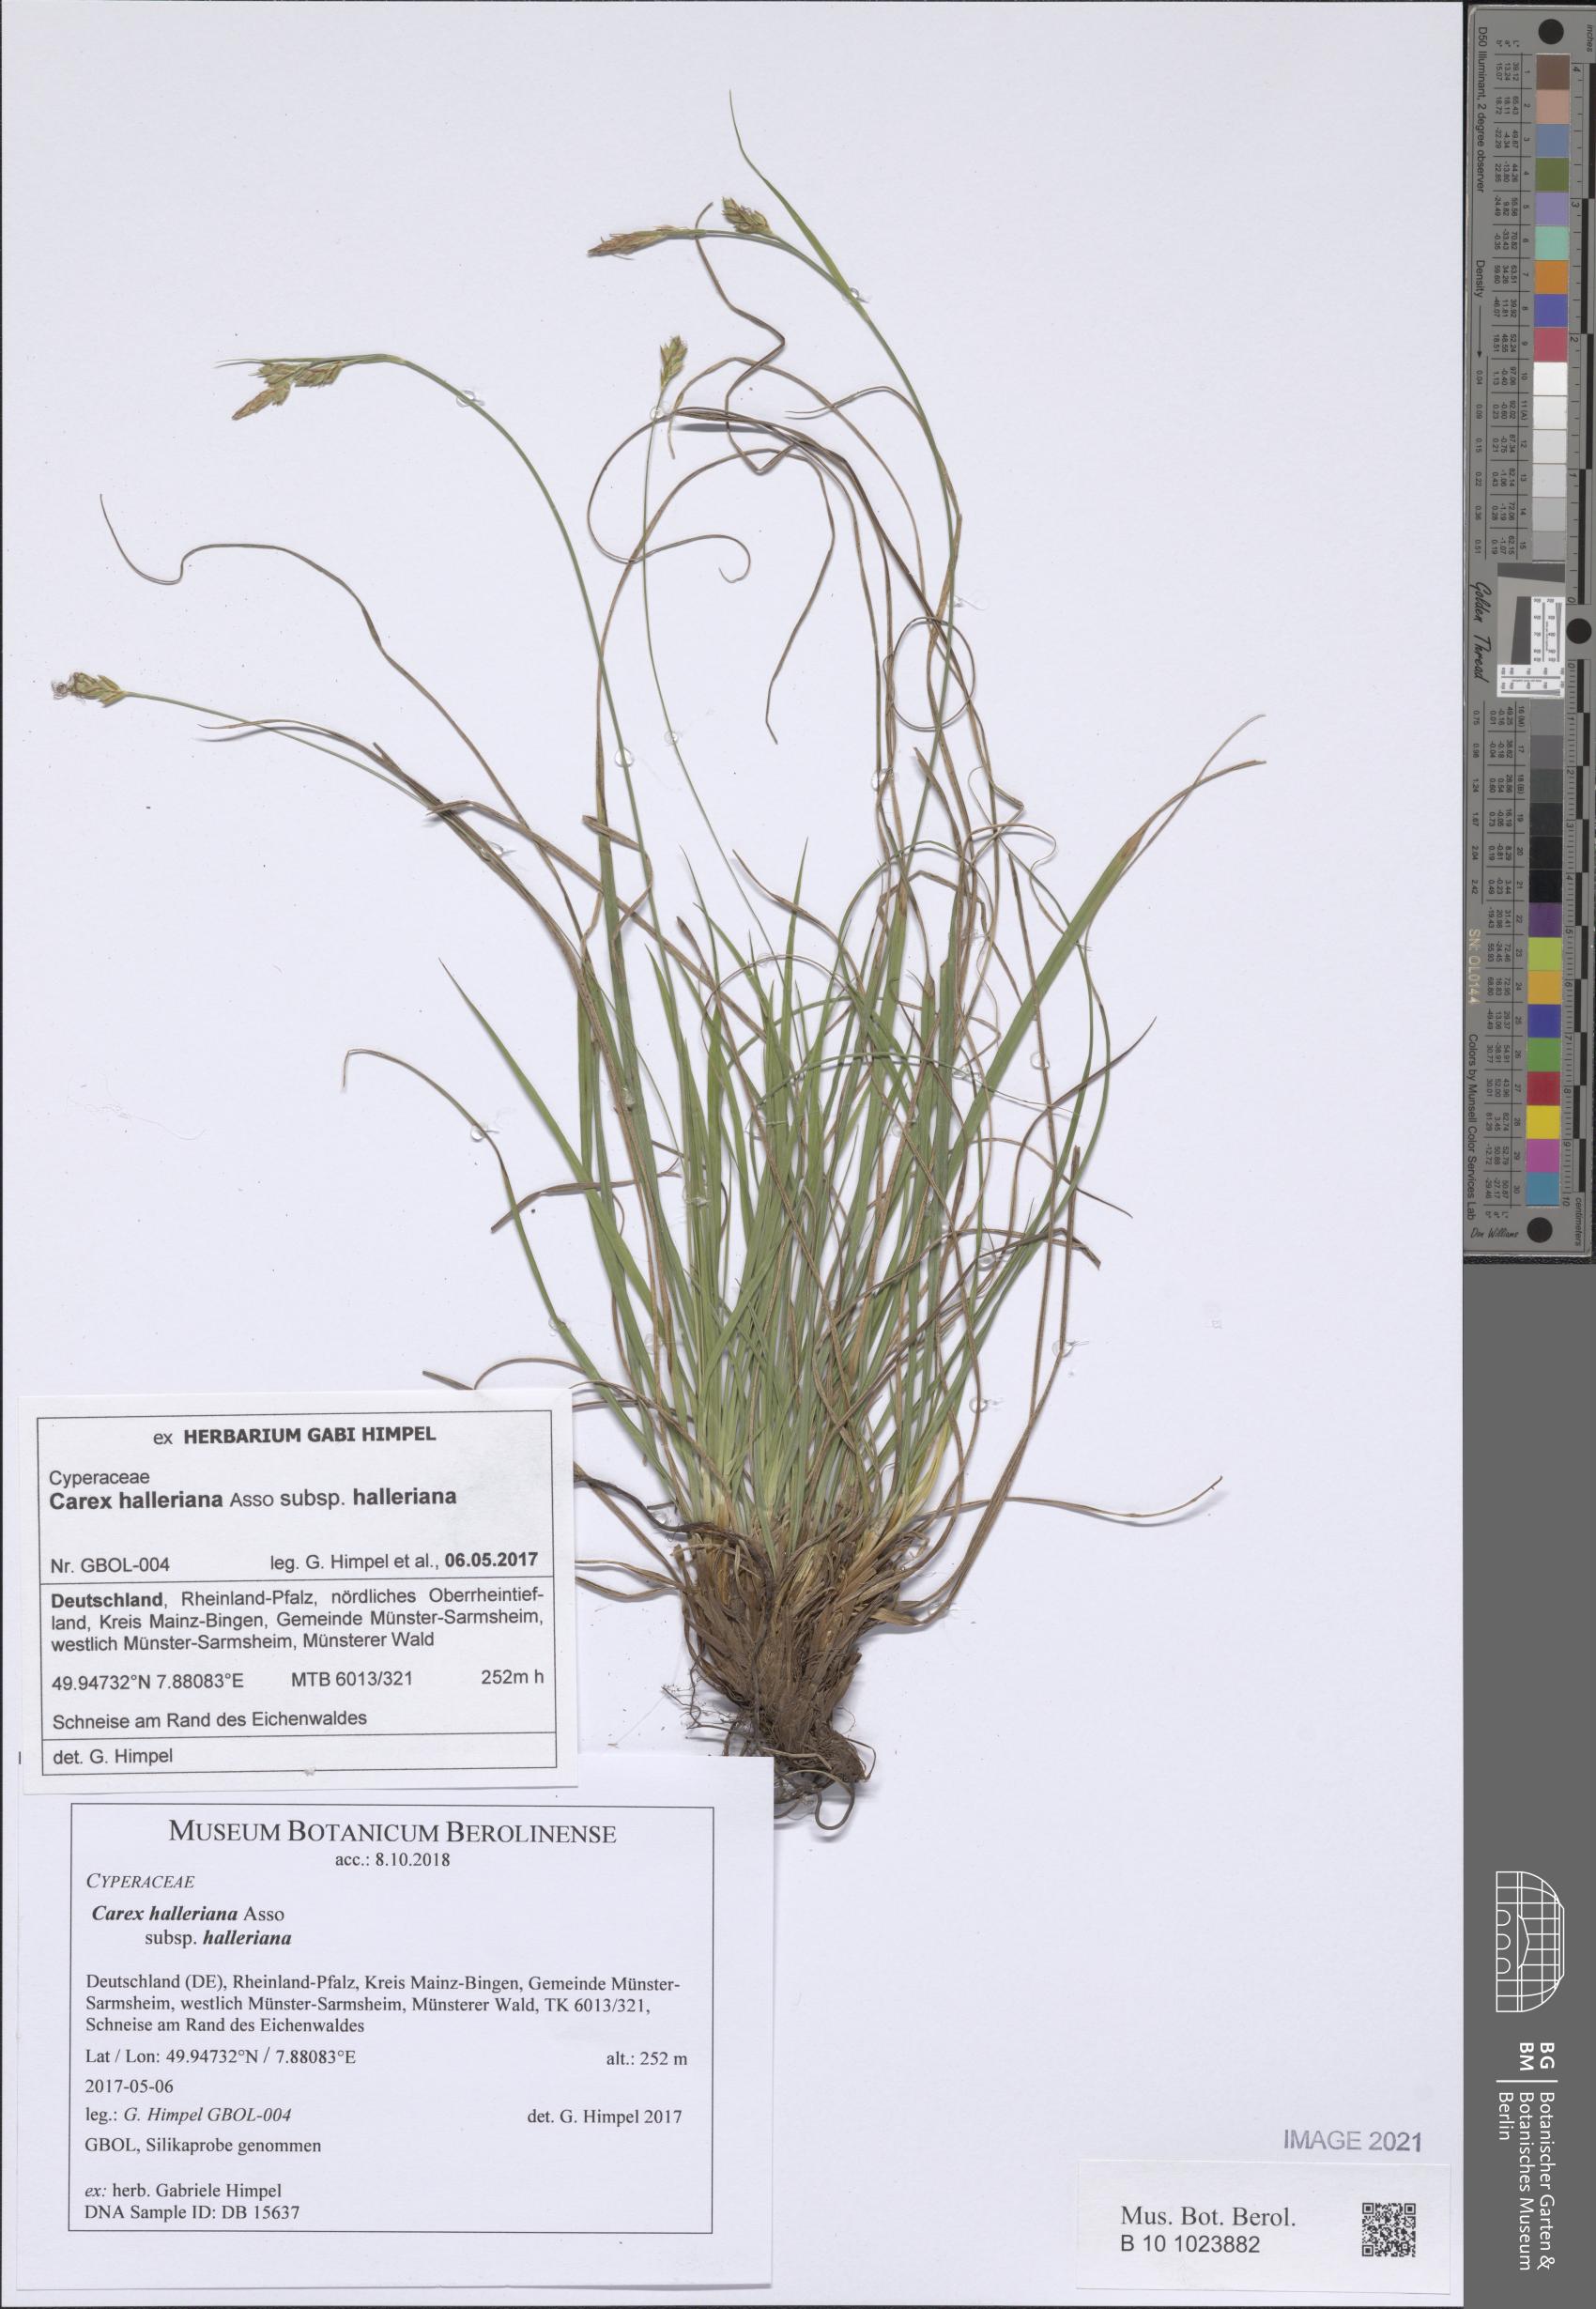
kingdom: Plantae
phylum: Tracheophyta
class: Liliopsida
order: Poales
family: Cyperaceae
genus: Carex
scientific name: Carex halleriana
